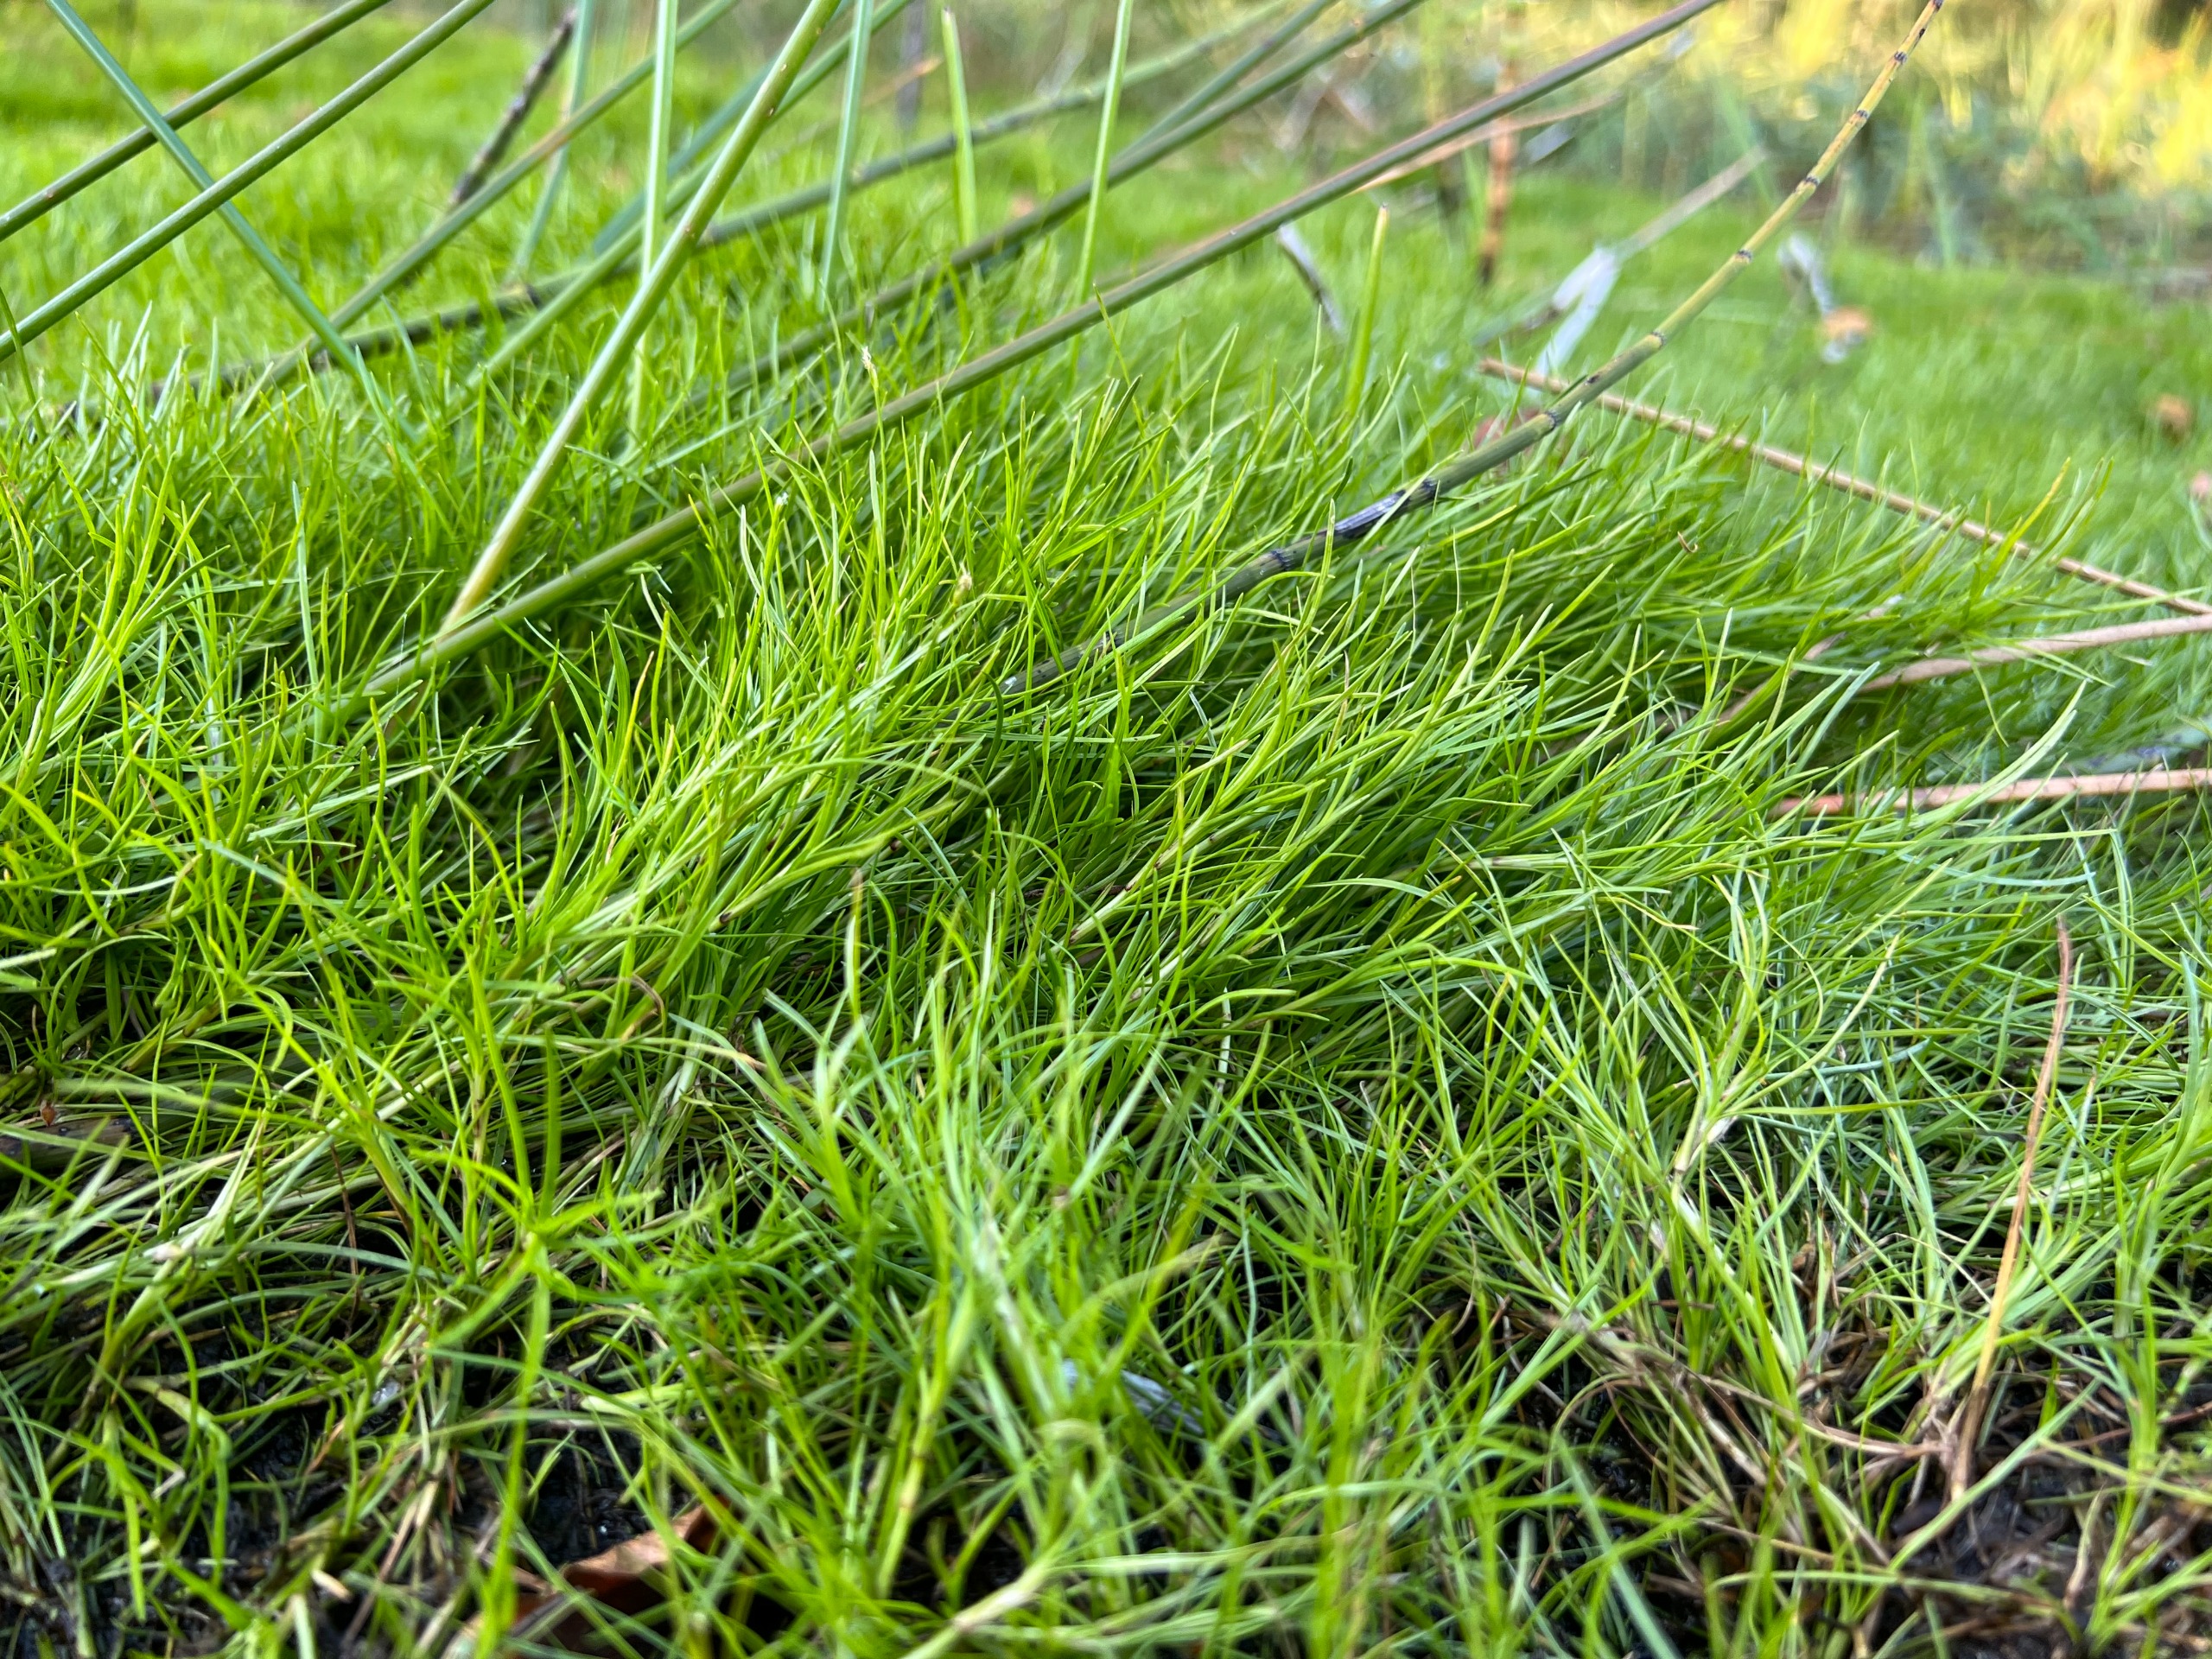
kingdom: Plantae
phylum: Tracheophyta
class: Liliopsida
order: Poales
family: Cyperaceae
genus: Isolepis
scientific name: Isolepis fluitans
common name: Flydende kogleaks
